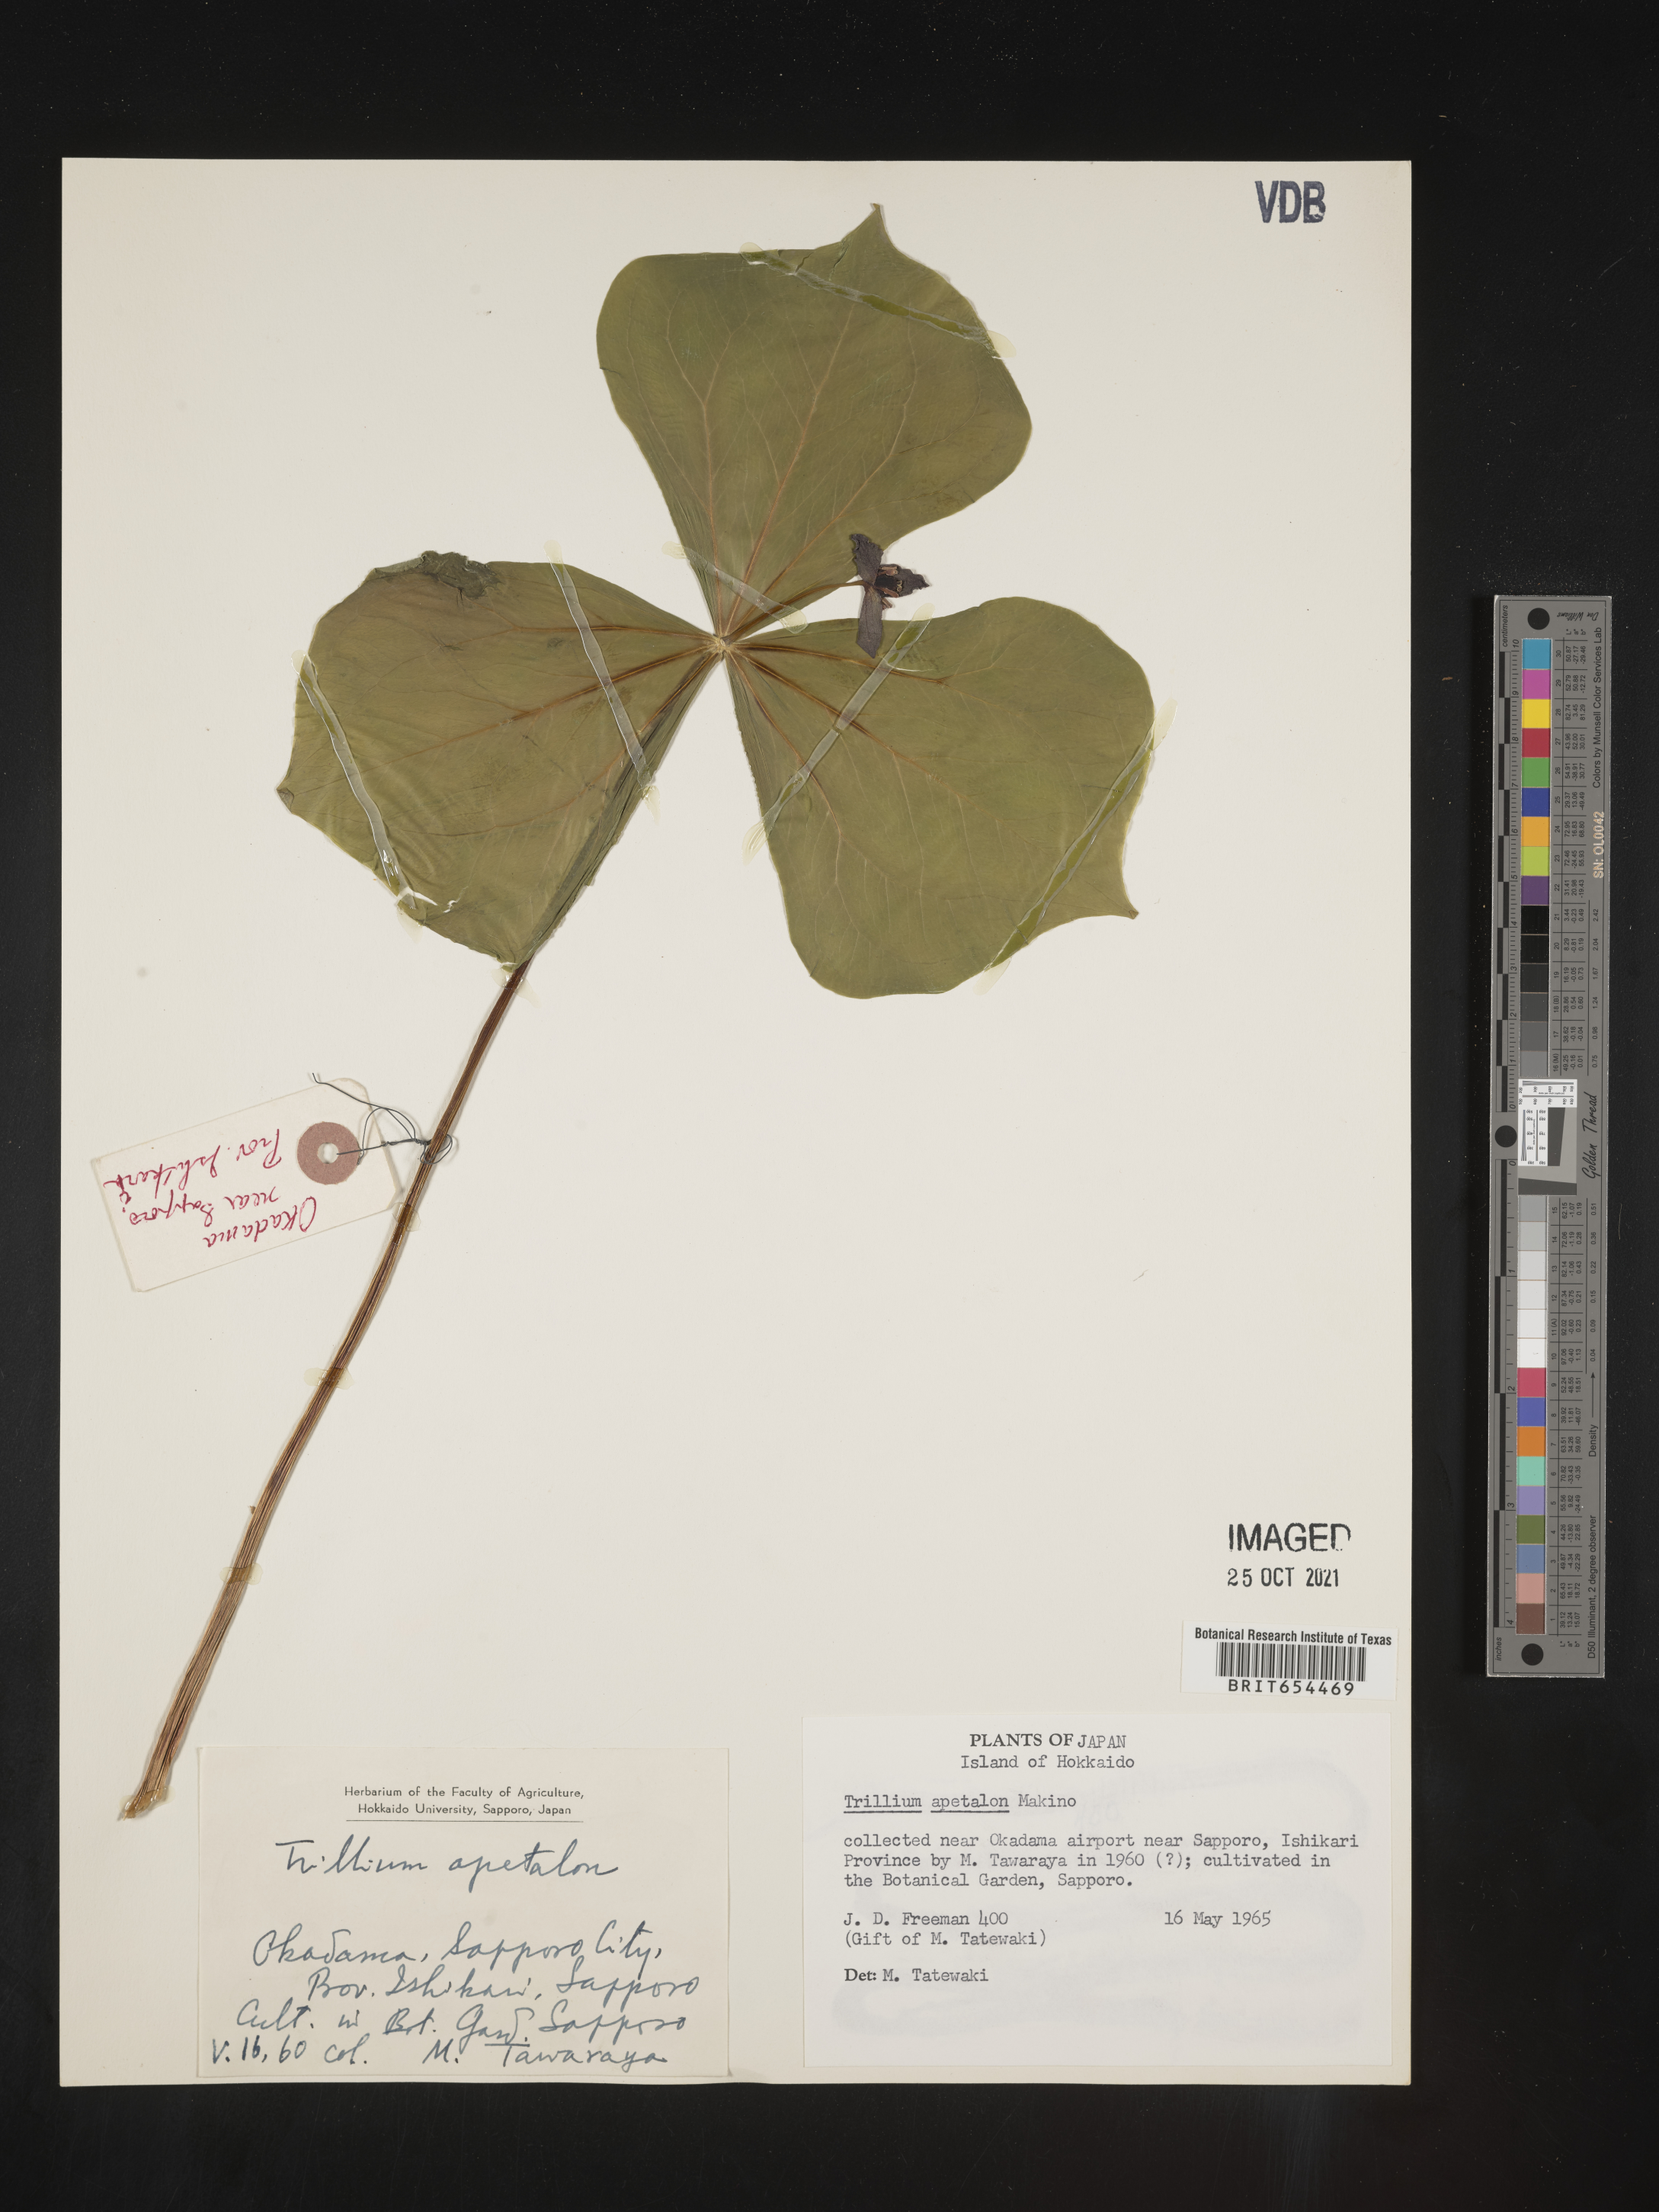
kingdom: Plantae
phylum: Tracheophyta
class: Liliopsida
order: Liliales
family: Melanthiaceae
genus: Trillium
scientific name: Trillium
